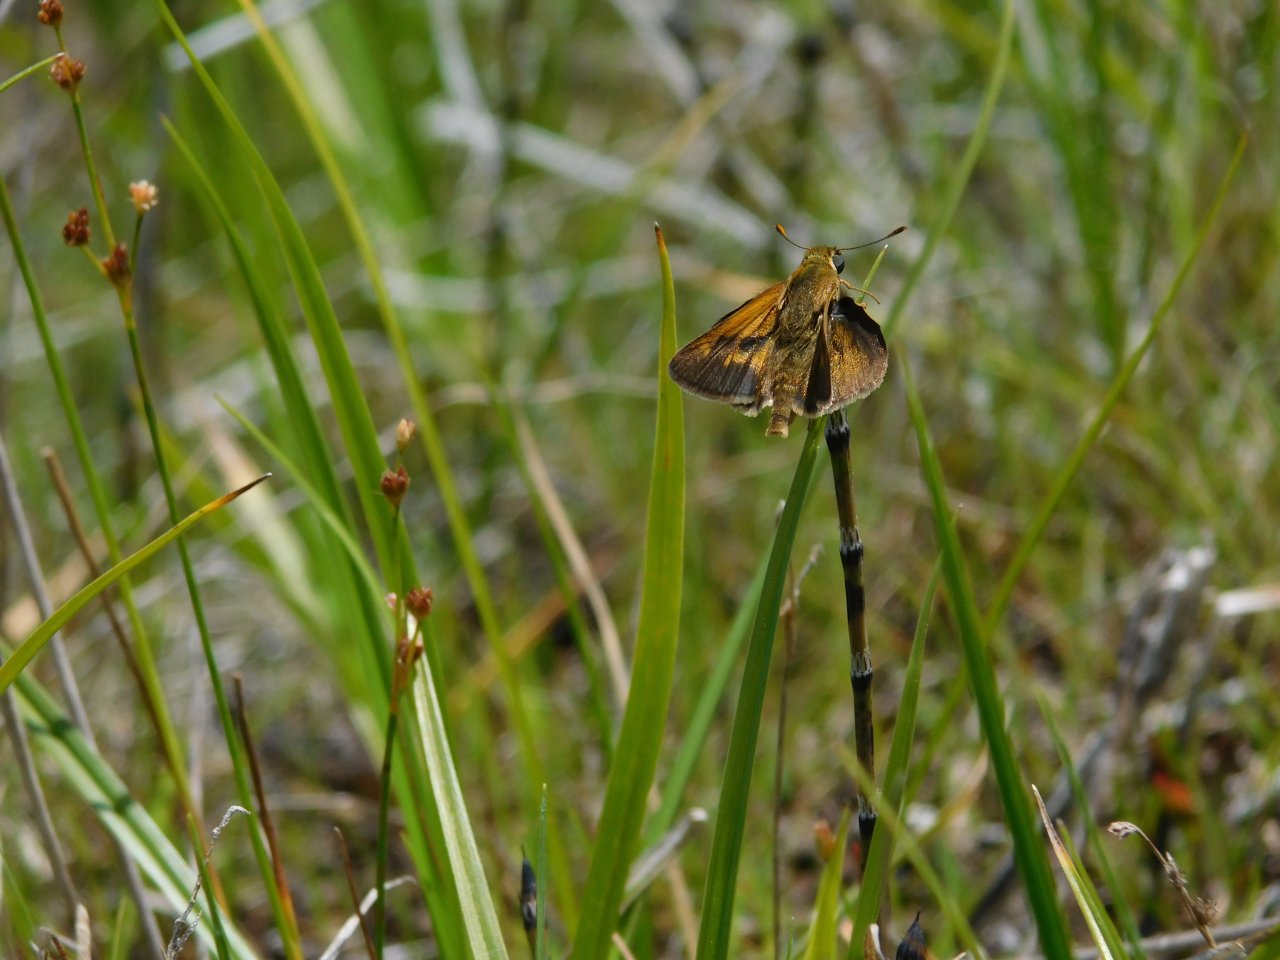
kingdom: Animalia
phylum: Arthropoda
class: Insecta
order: Lepidoptera
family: Hesperiidae
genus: Polites
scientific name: Polites
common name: Crossline Skipper
